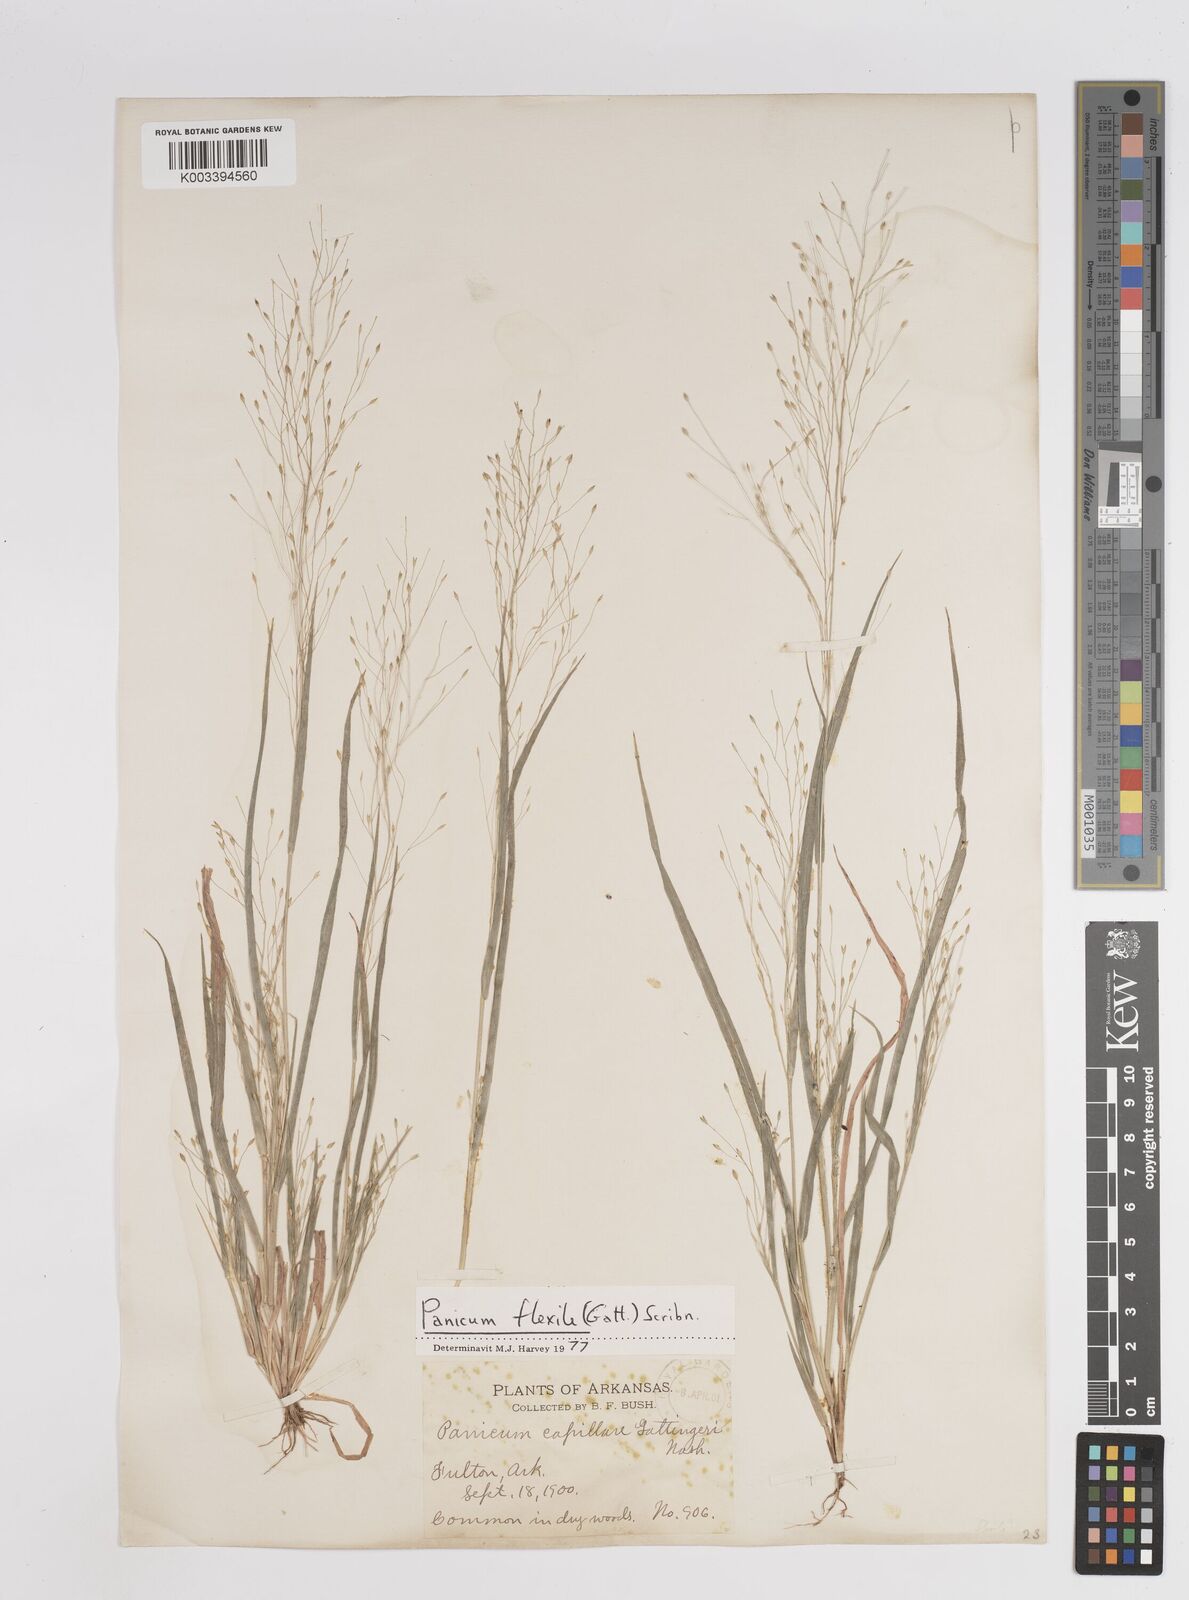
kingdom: Plantae
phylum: Tracheophyta
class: Liliopsida
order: Poales
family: Poaceae
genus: Panicum
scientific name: Panicum flexile
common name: Wiry panicgrass
